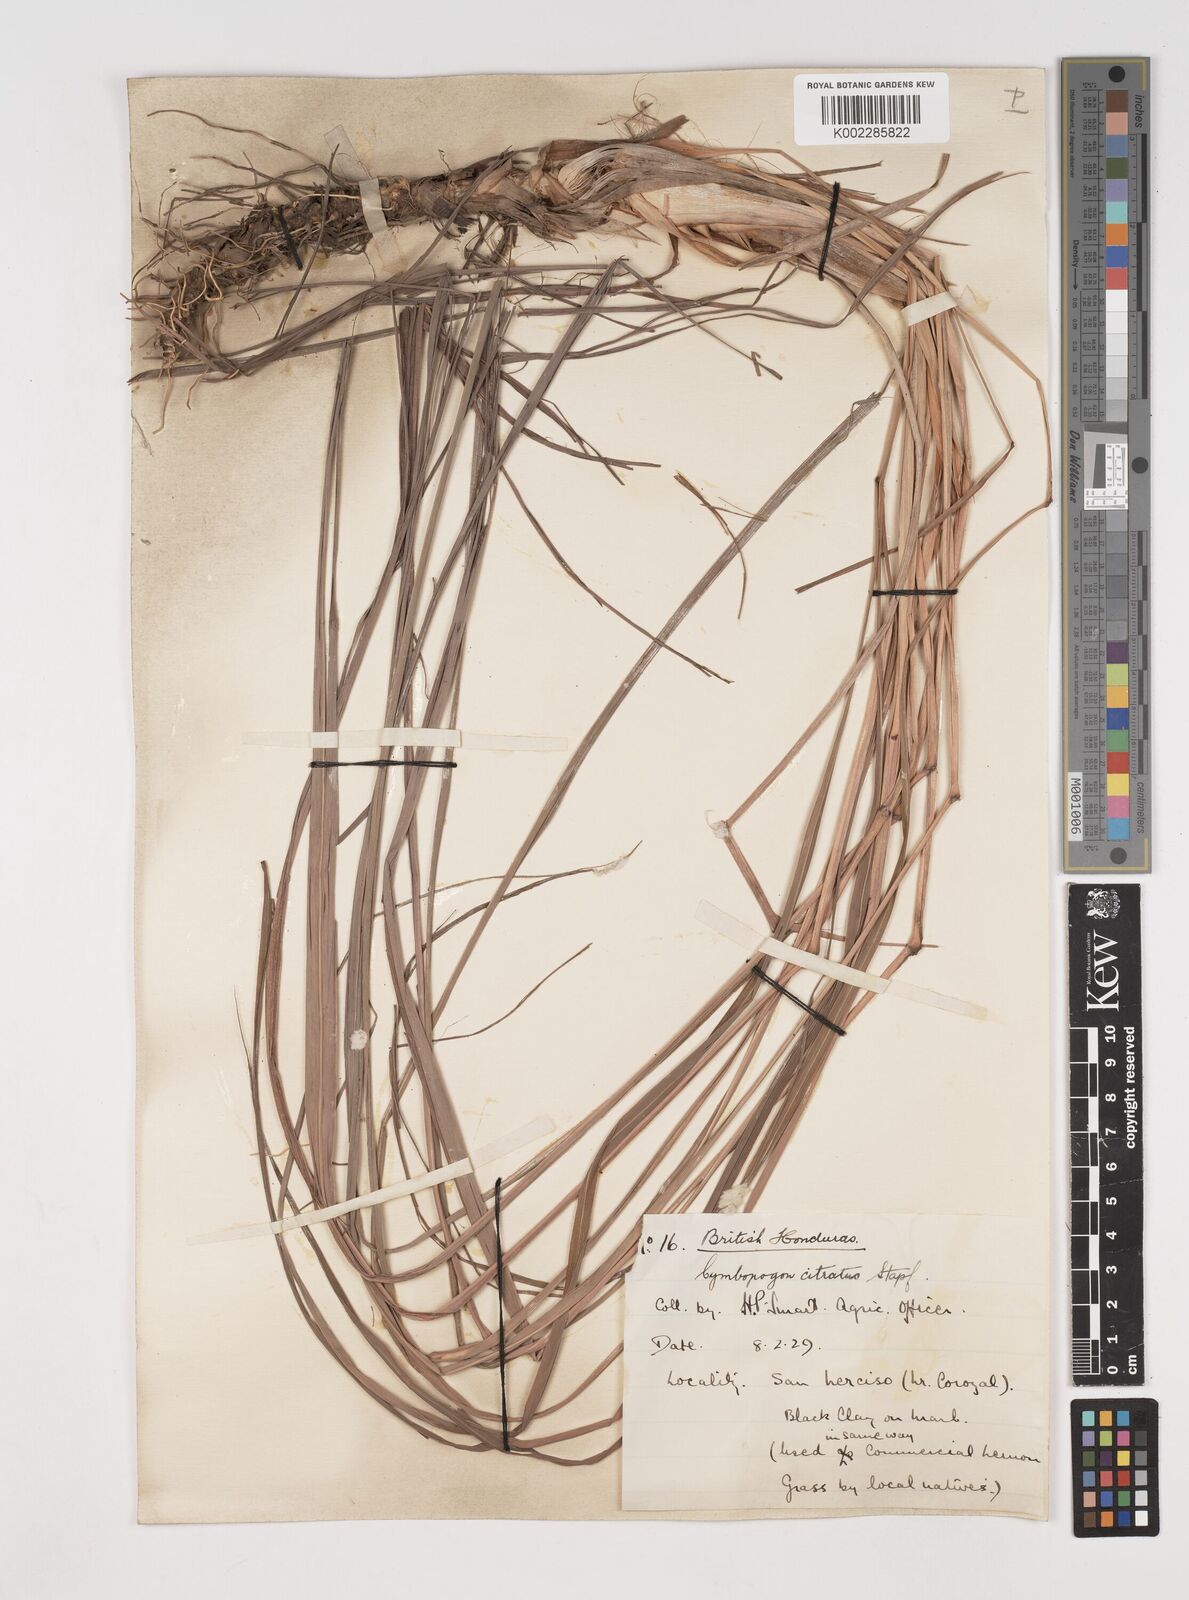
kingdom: Plantae
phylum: Tracheophyta
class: Liliopsida
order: Poales
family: Poaceae
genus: Cymbopogon
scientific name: Cymbopogon citratus
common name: Lemon grass
